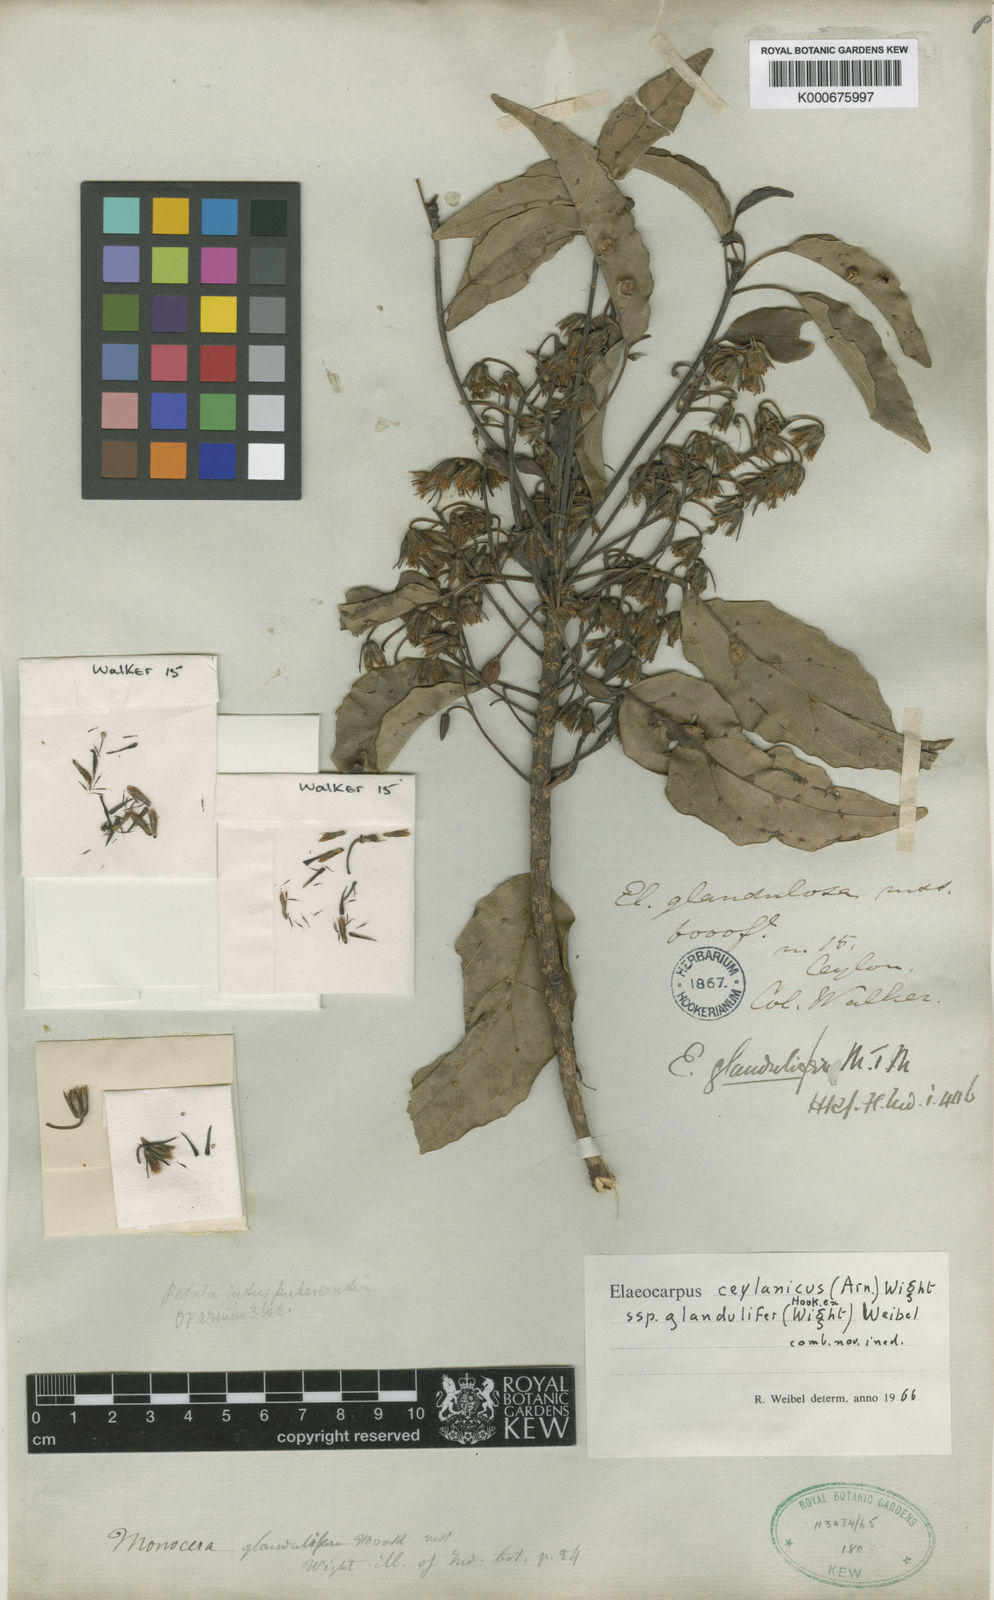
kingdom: Plantae
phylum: Tracheophyta
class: Magnoliopsida
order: Oxalidales
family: Elaeocarpaceae
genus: Elaeocarpus
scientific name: Elaeocarpus glandulifer
